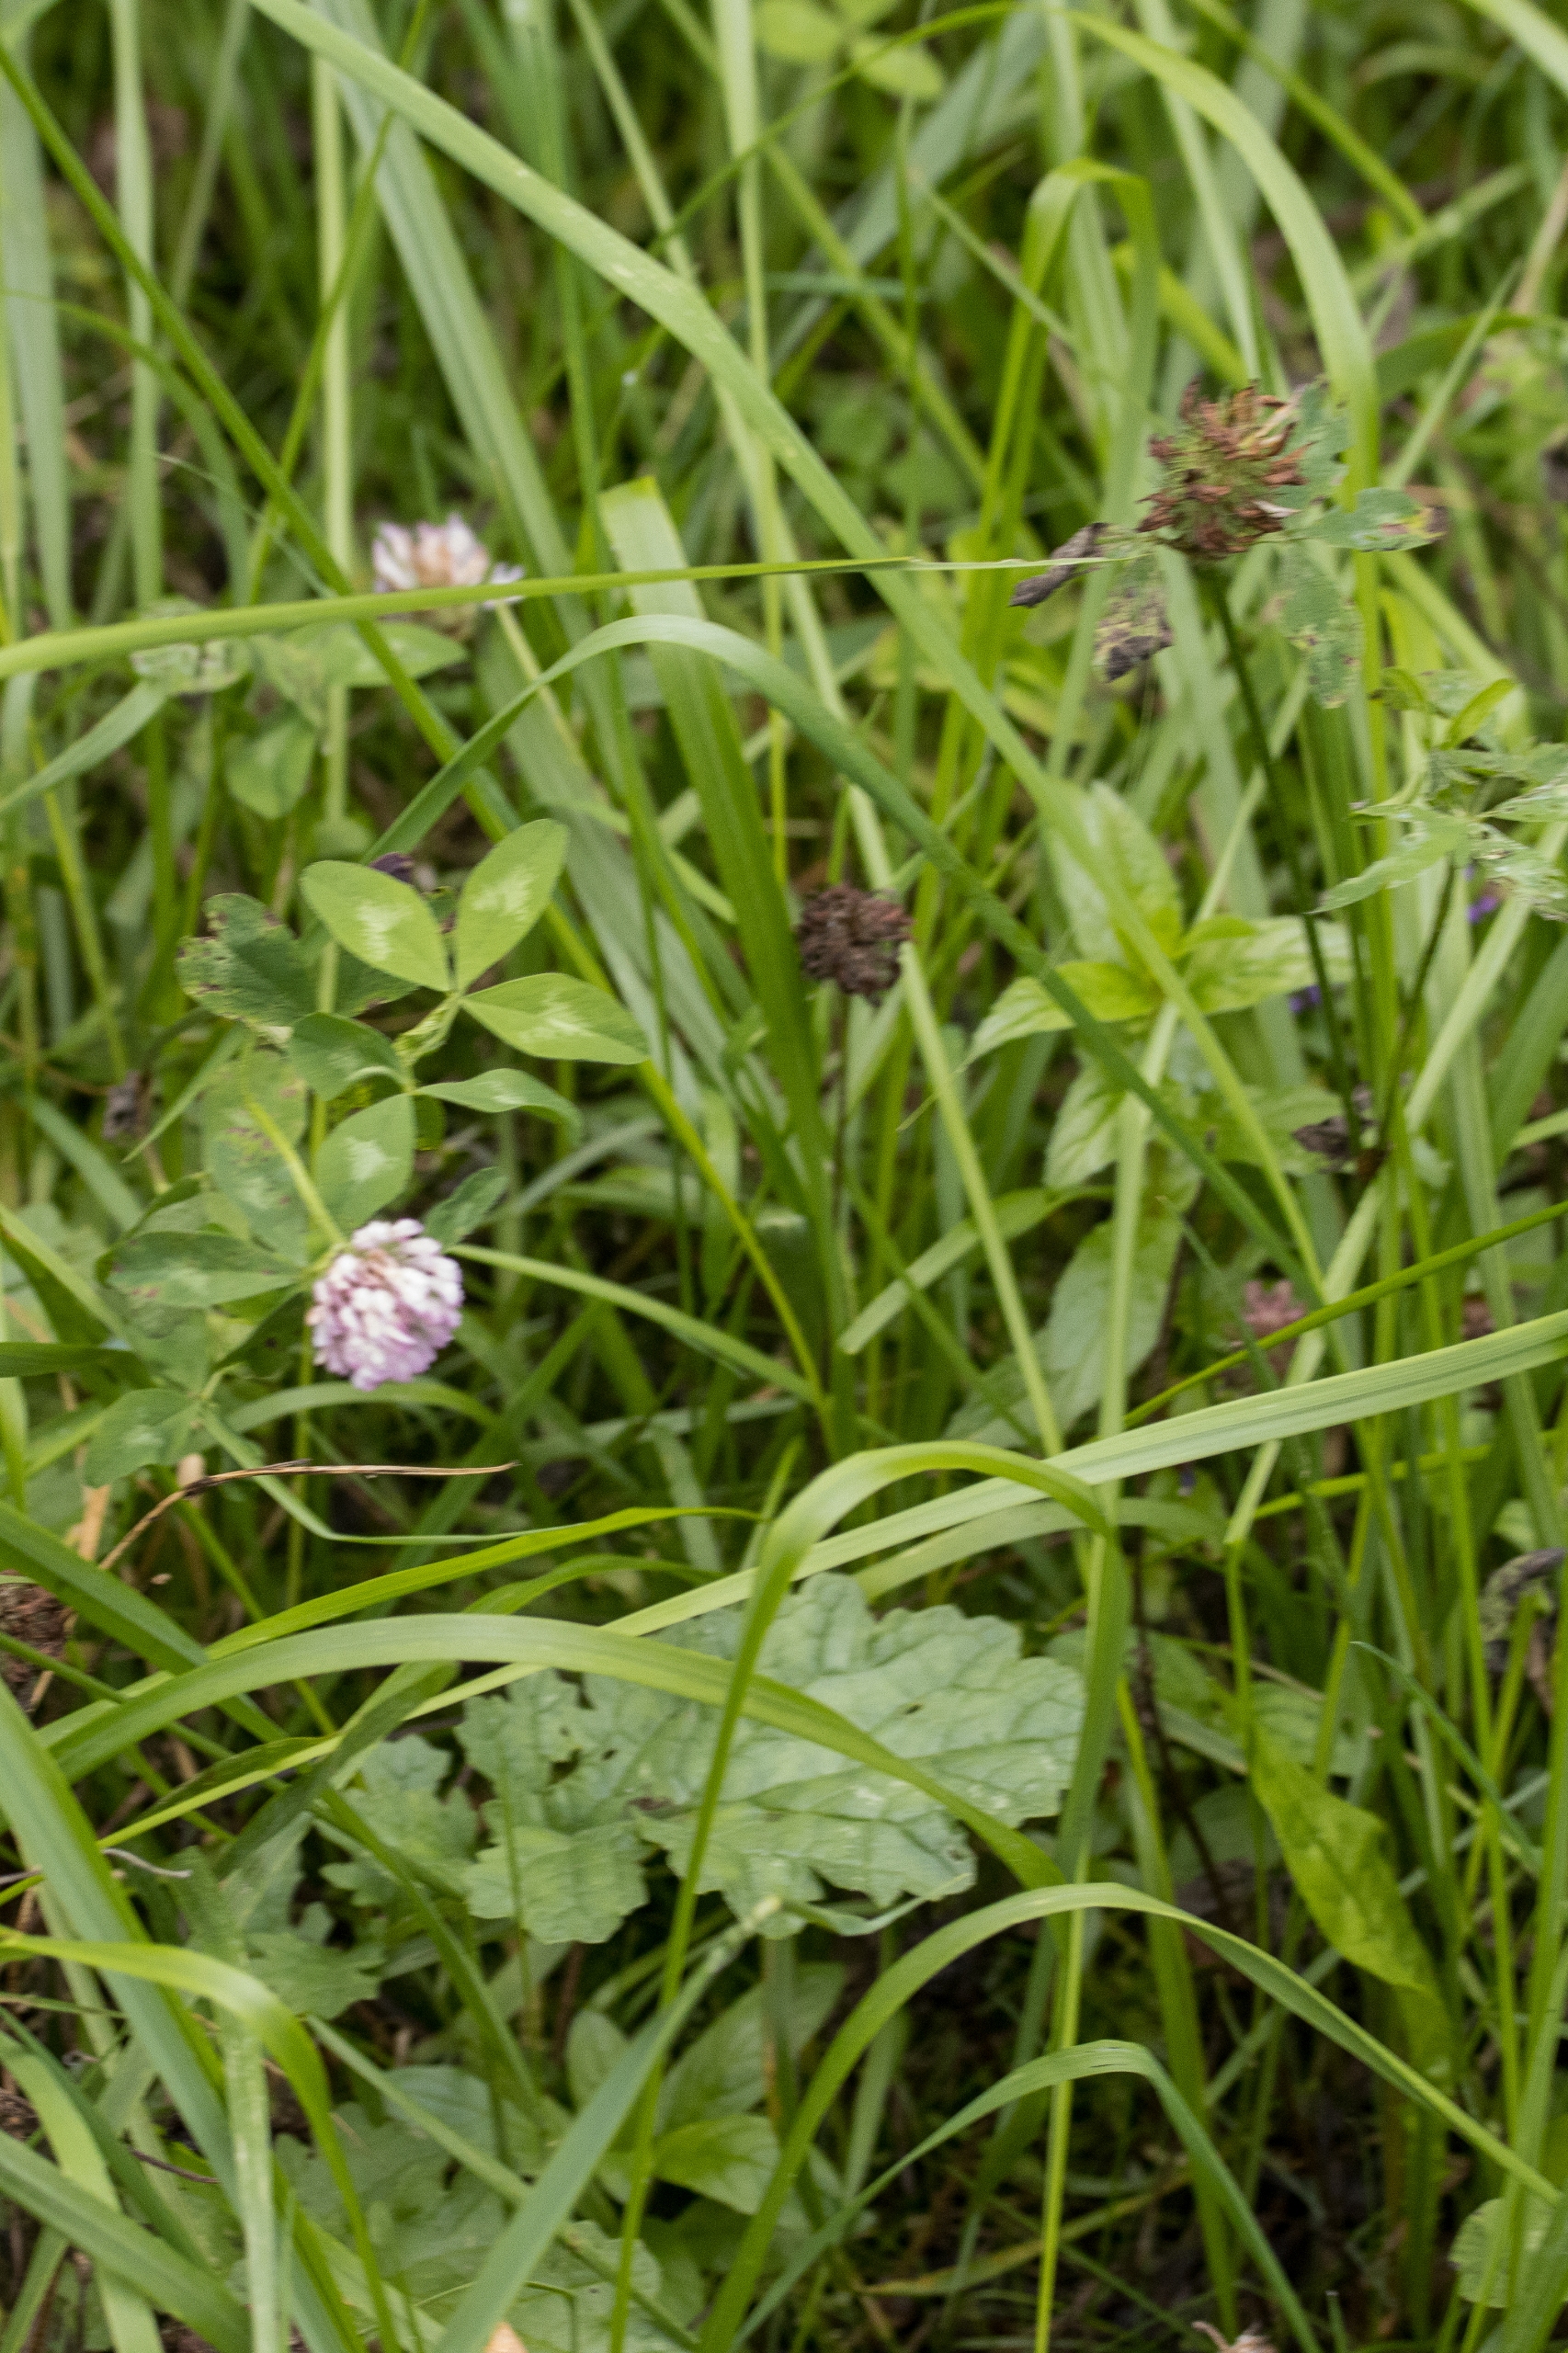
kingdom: Plantae
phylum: Tracheophyta
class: Magnoliopsida
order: Fabales
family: Fabaceae
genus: Trifolium
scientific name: Trifolium pratense
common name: Rød-kløver
